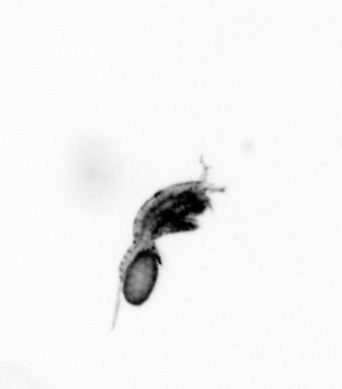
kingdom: Animalia
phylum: Arthropoda
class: Copepoda
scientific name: Copepoda
